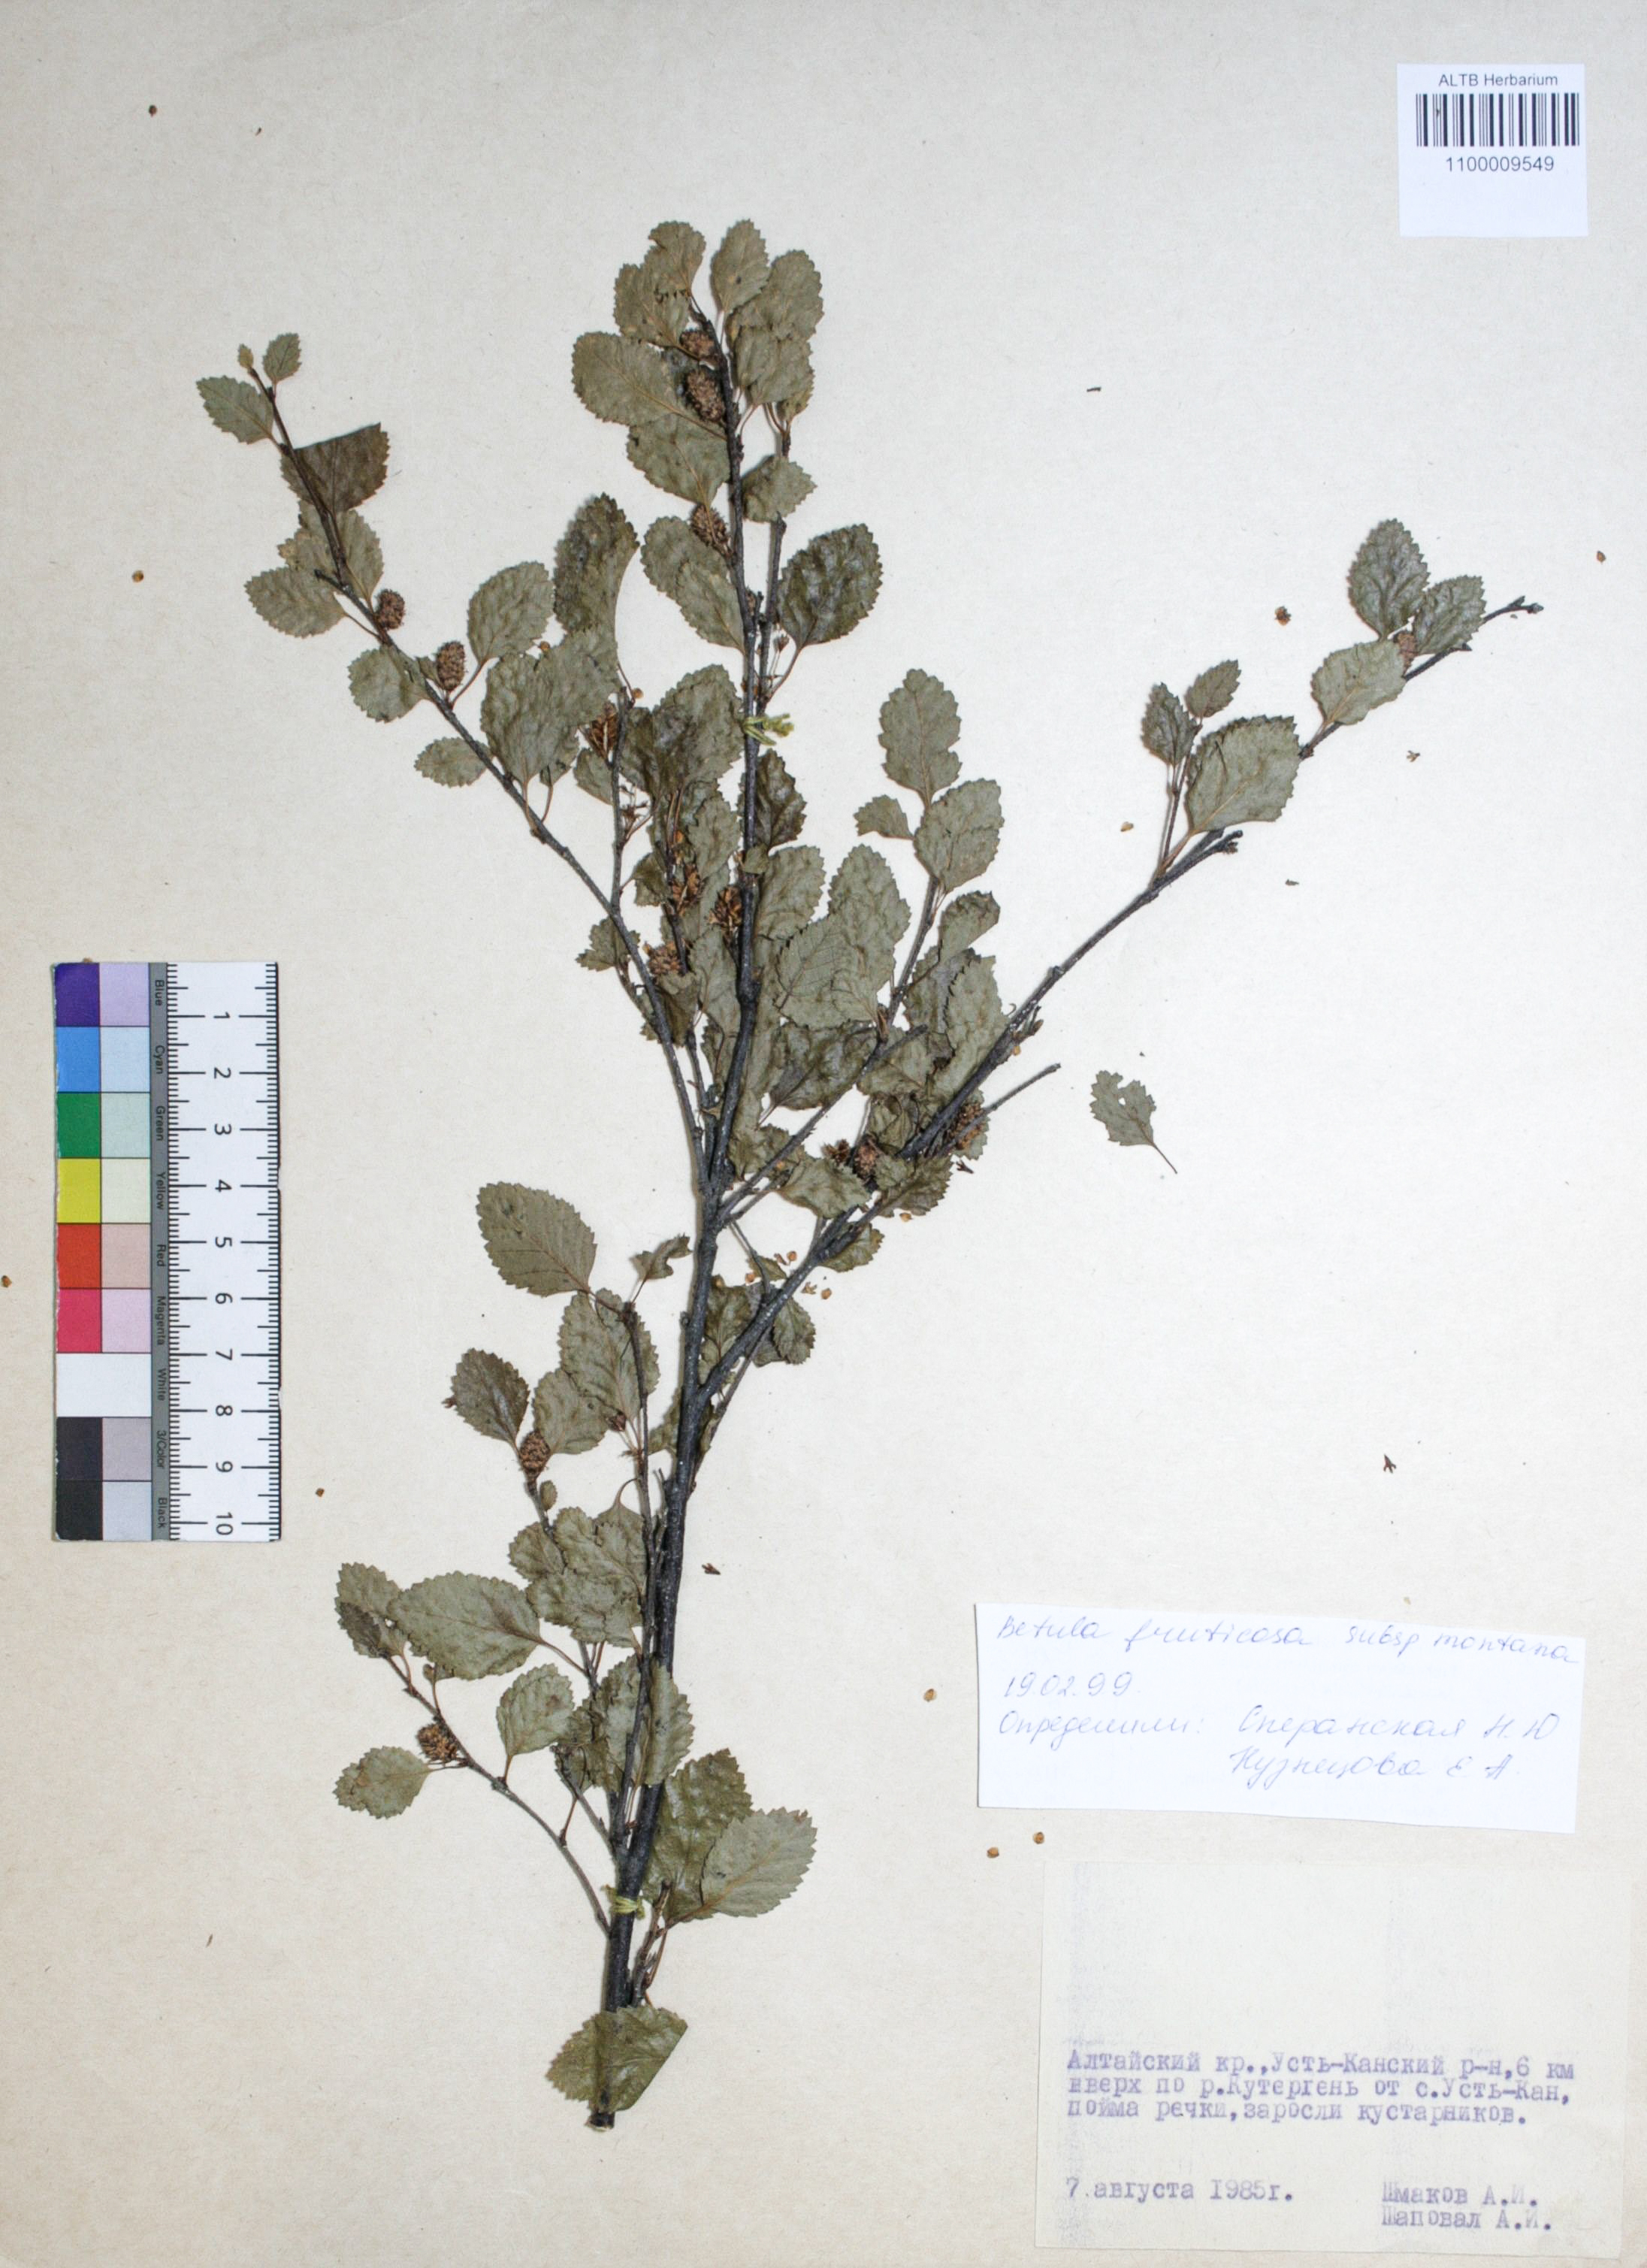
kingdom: Plantae
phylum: Tracheophyta
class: Magnoliopsida
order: Fagales
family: Betulaceae
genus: Betula
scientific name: Betula fruticosa
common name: Japanese bog birch
